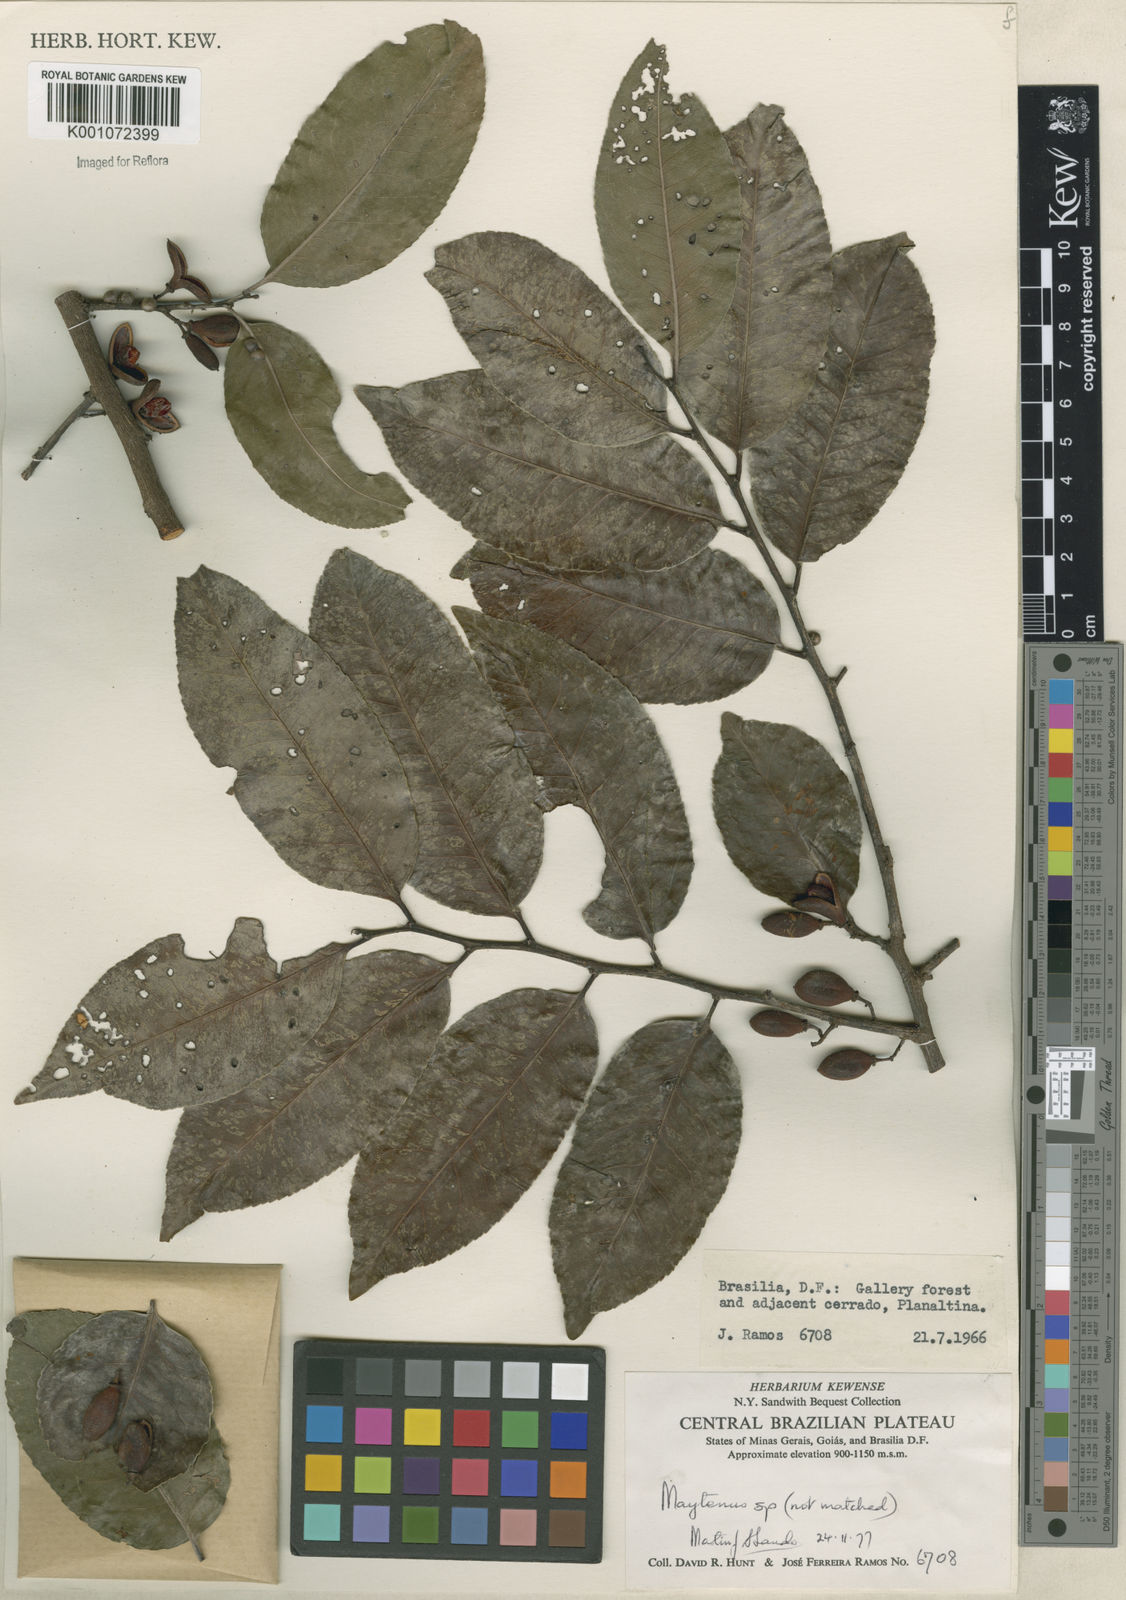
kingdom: Plantae
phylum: Tracheophyta
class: Magnoliopsida
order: Celastrales
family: Celastraceae
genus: Maytenus
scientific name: Maytenus
